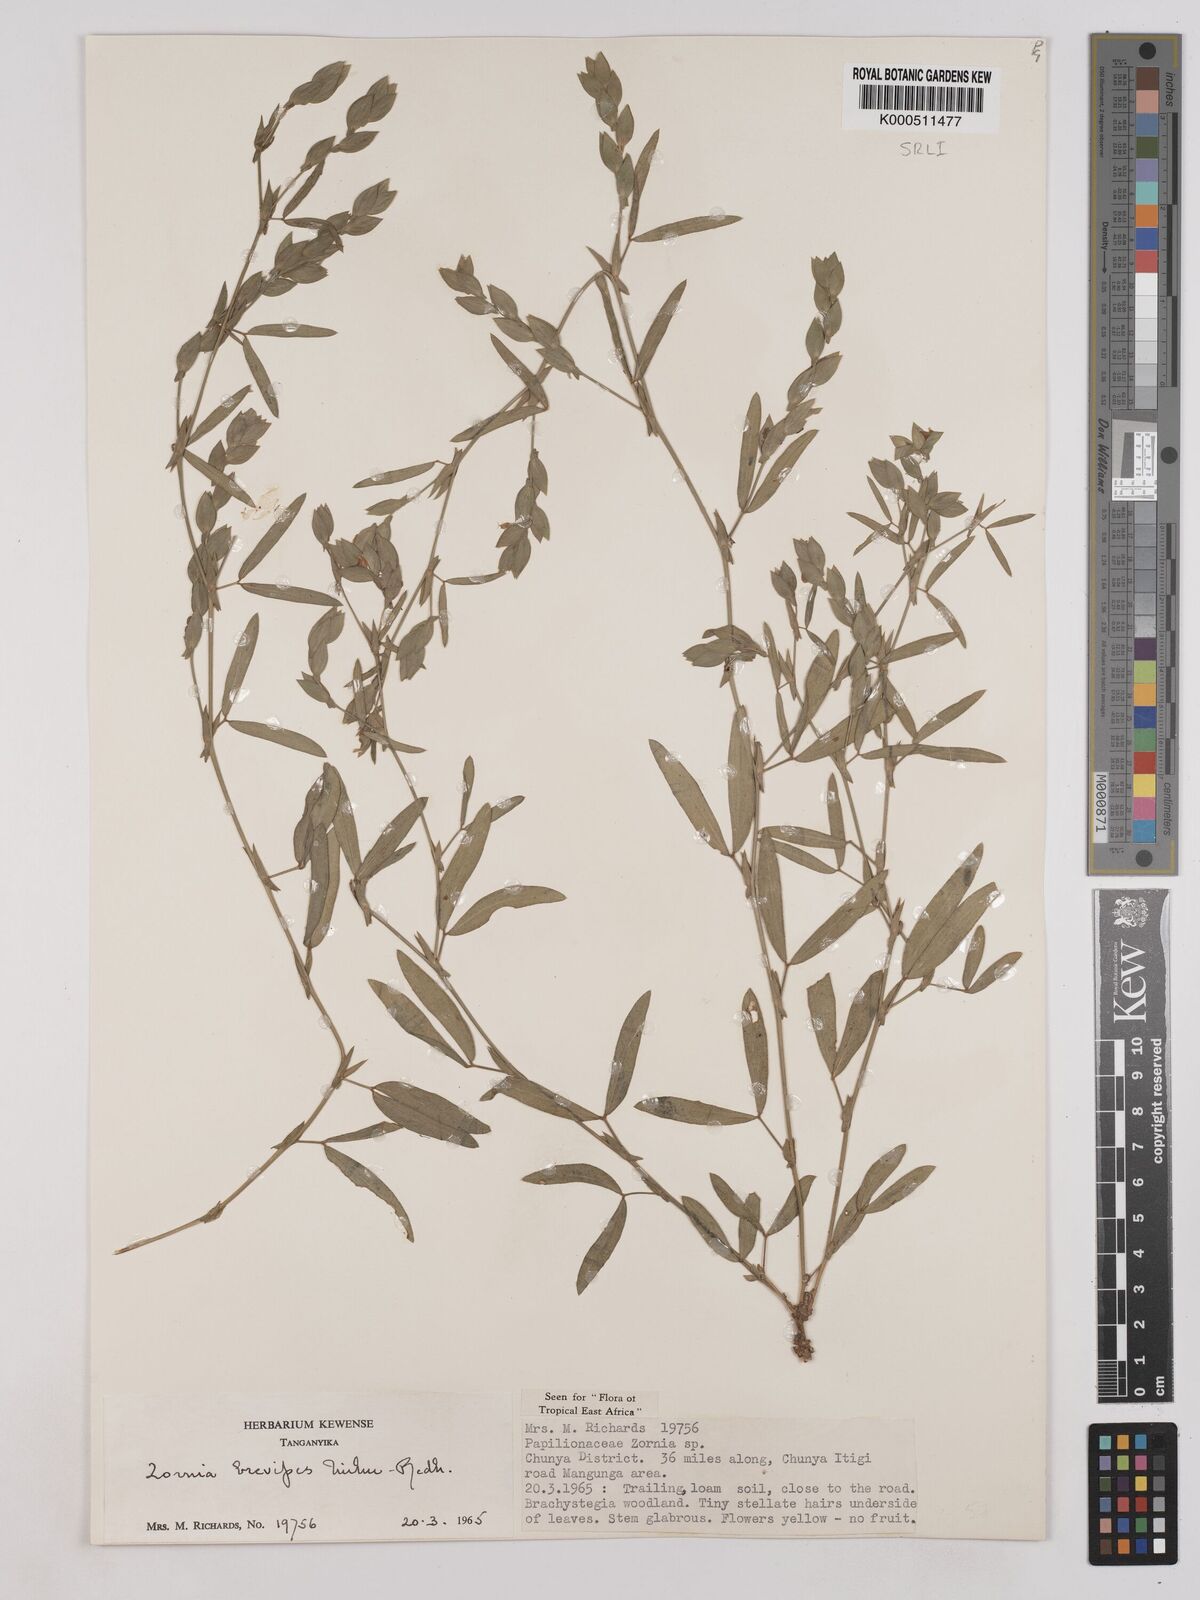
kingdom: Plantae
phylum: Tracheophyta
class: Magnoliopsida
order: Fabales
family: Fabaceae
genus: Zornia
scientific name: Zornia brevipes
